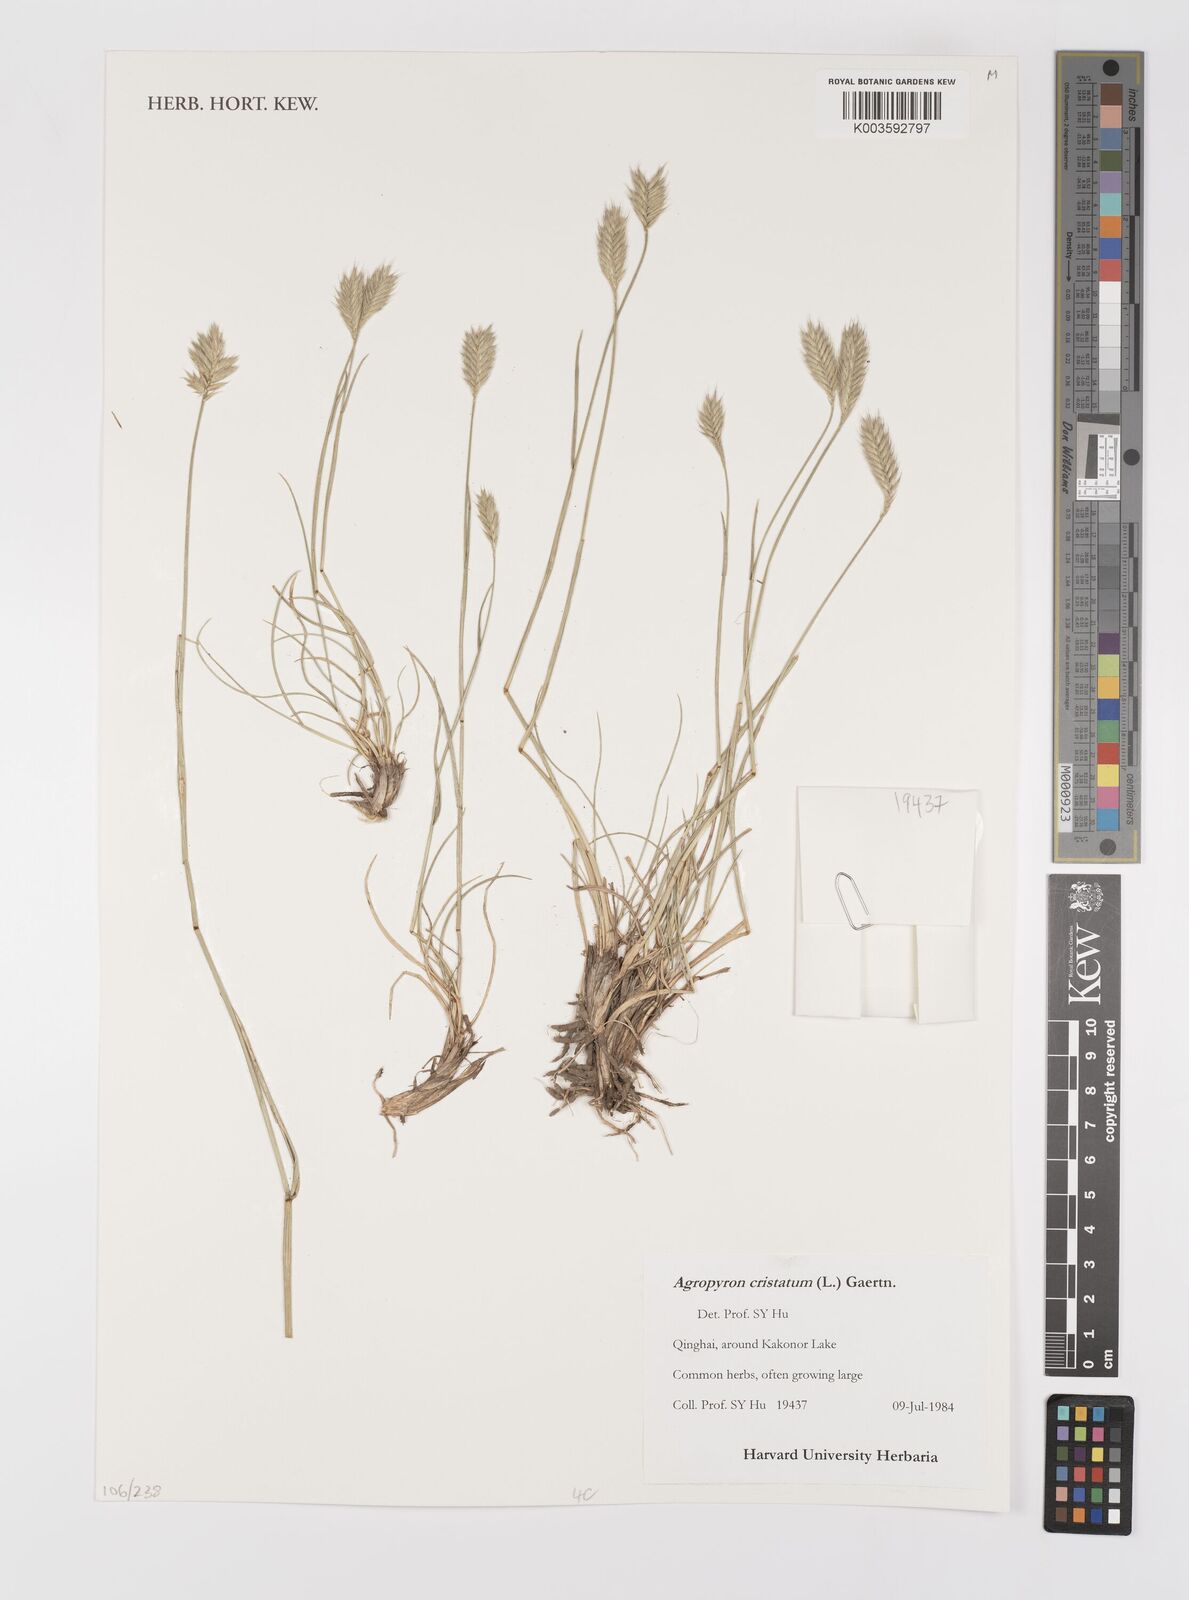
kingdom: Plantae
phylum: Tracheophyta
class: Liliopsida
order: Poales
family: Poaceae
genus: Agropyron
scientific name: Agropyron cristatum
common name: Crested wheatgrass
